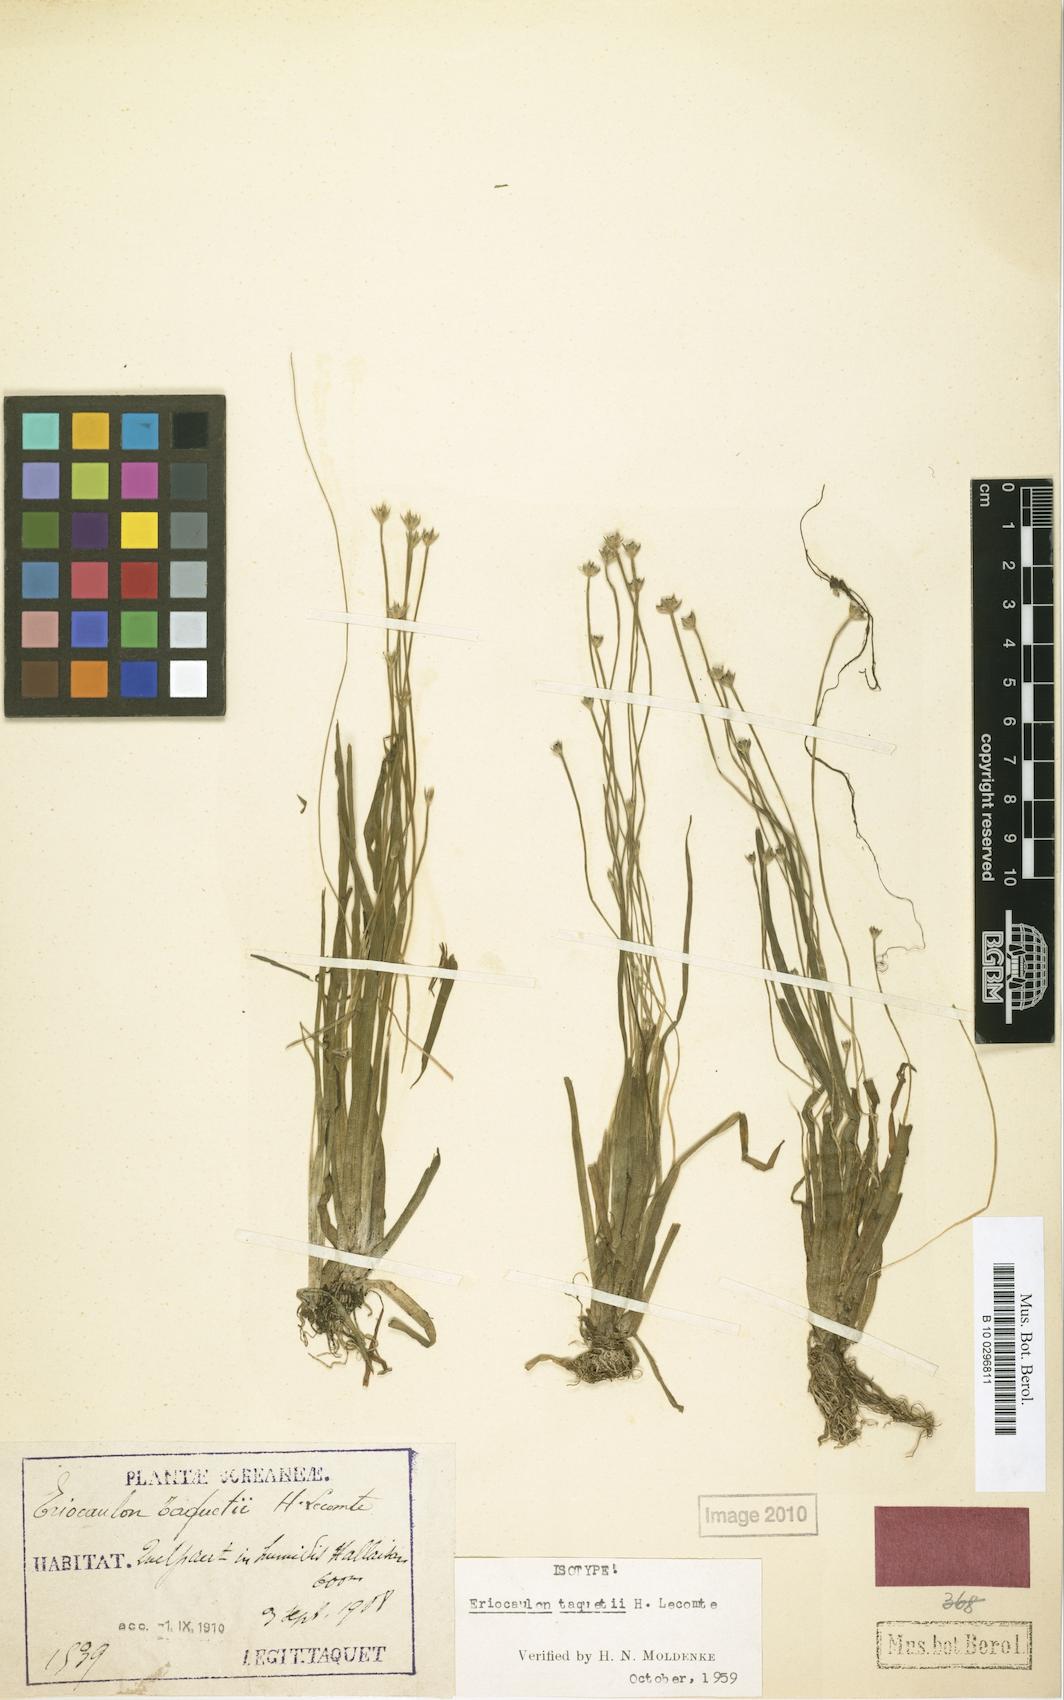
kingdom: Plantae
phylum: Tracheophyta
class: Liliopsida
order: Poales
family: Eriocaulaceae
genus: Eriocaulon
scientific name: Eriocaulon taquetii
